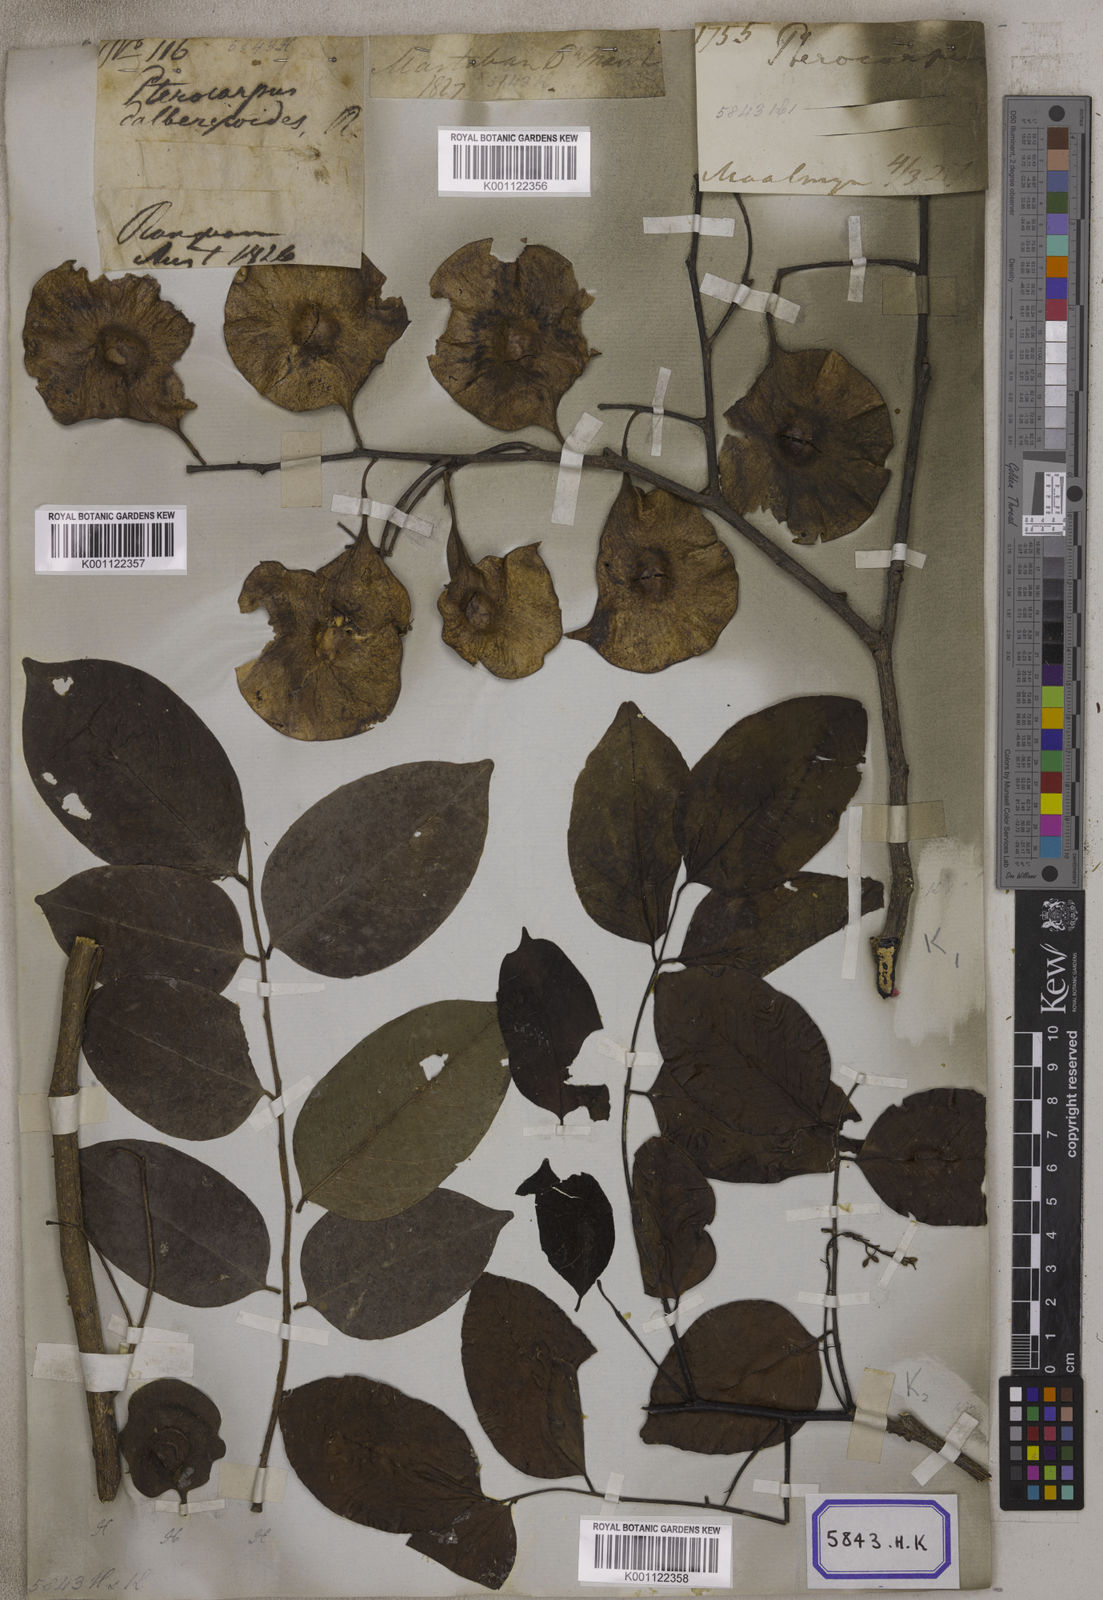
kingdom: Plantae
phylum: Tracheophyta
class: Magnoliopsida
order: Fabales
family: Fabaceae
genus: Pterocarpus
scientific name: Pterocarpus
